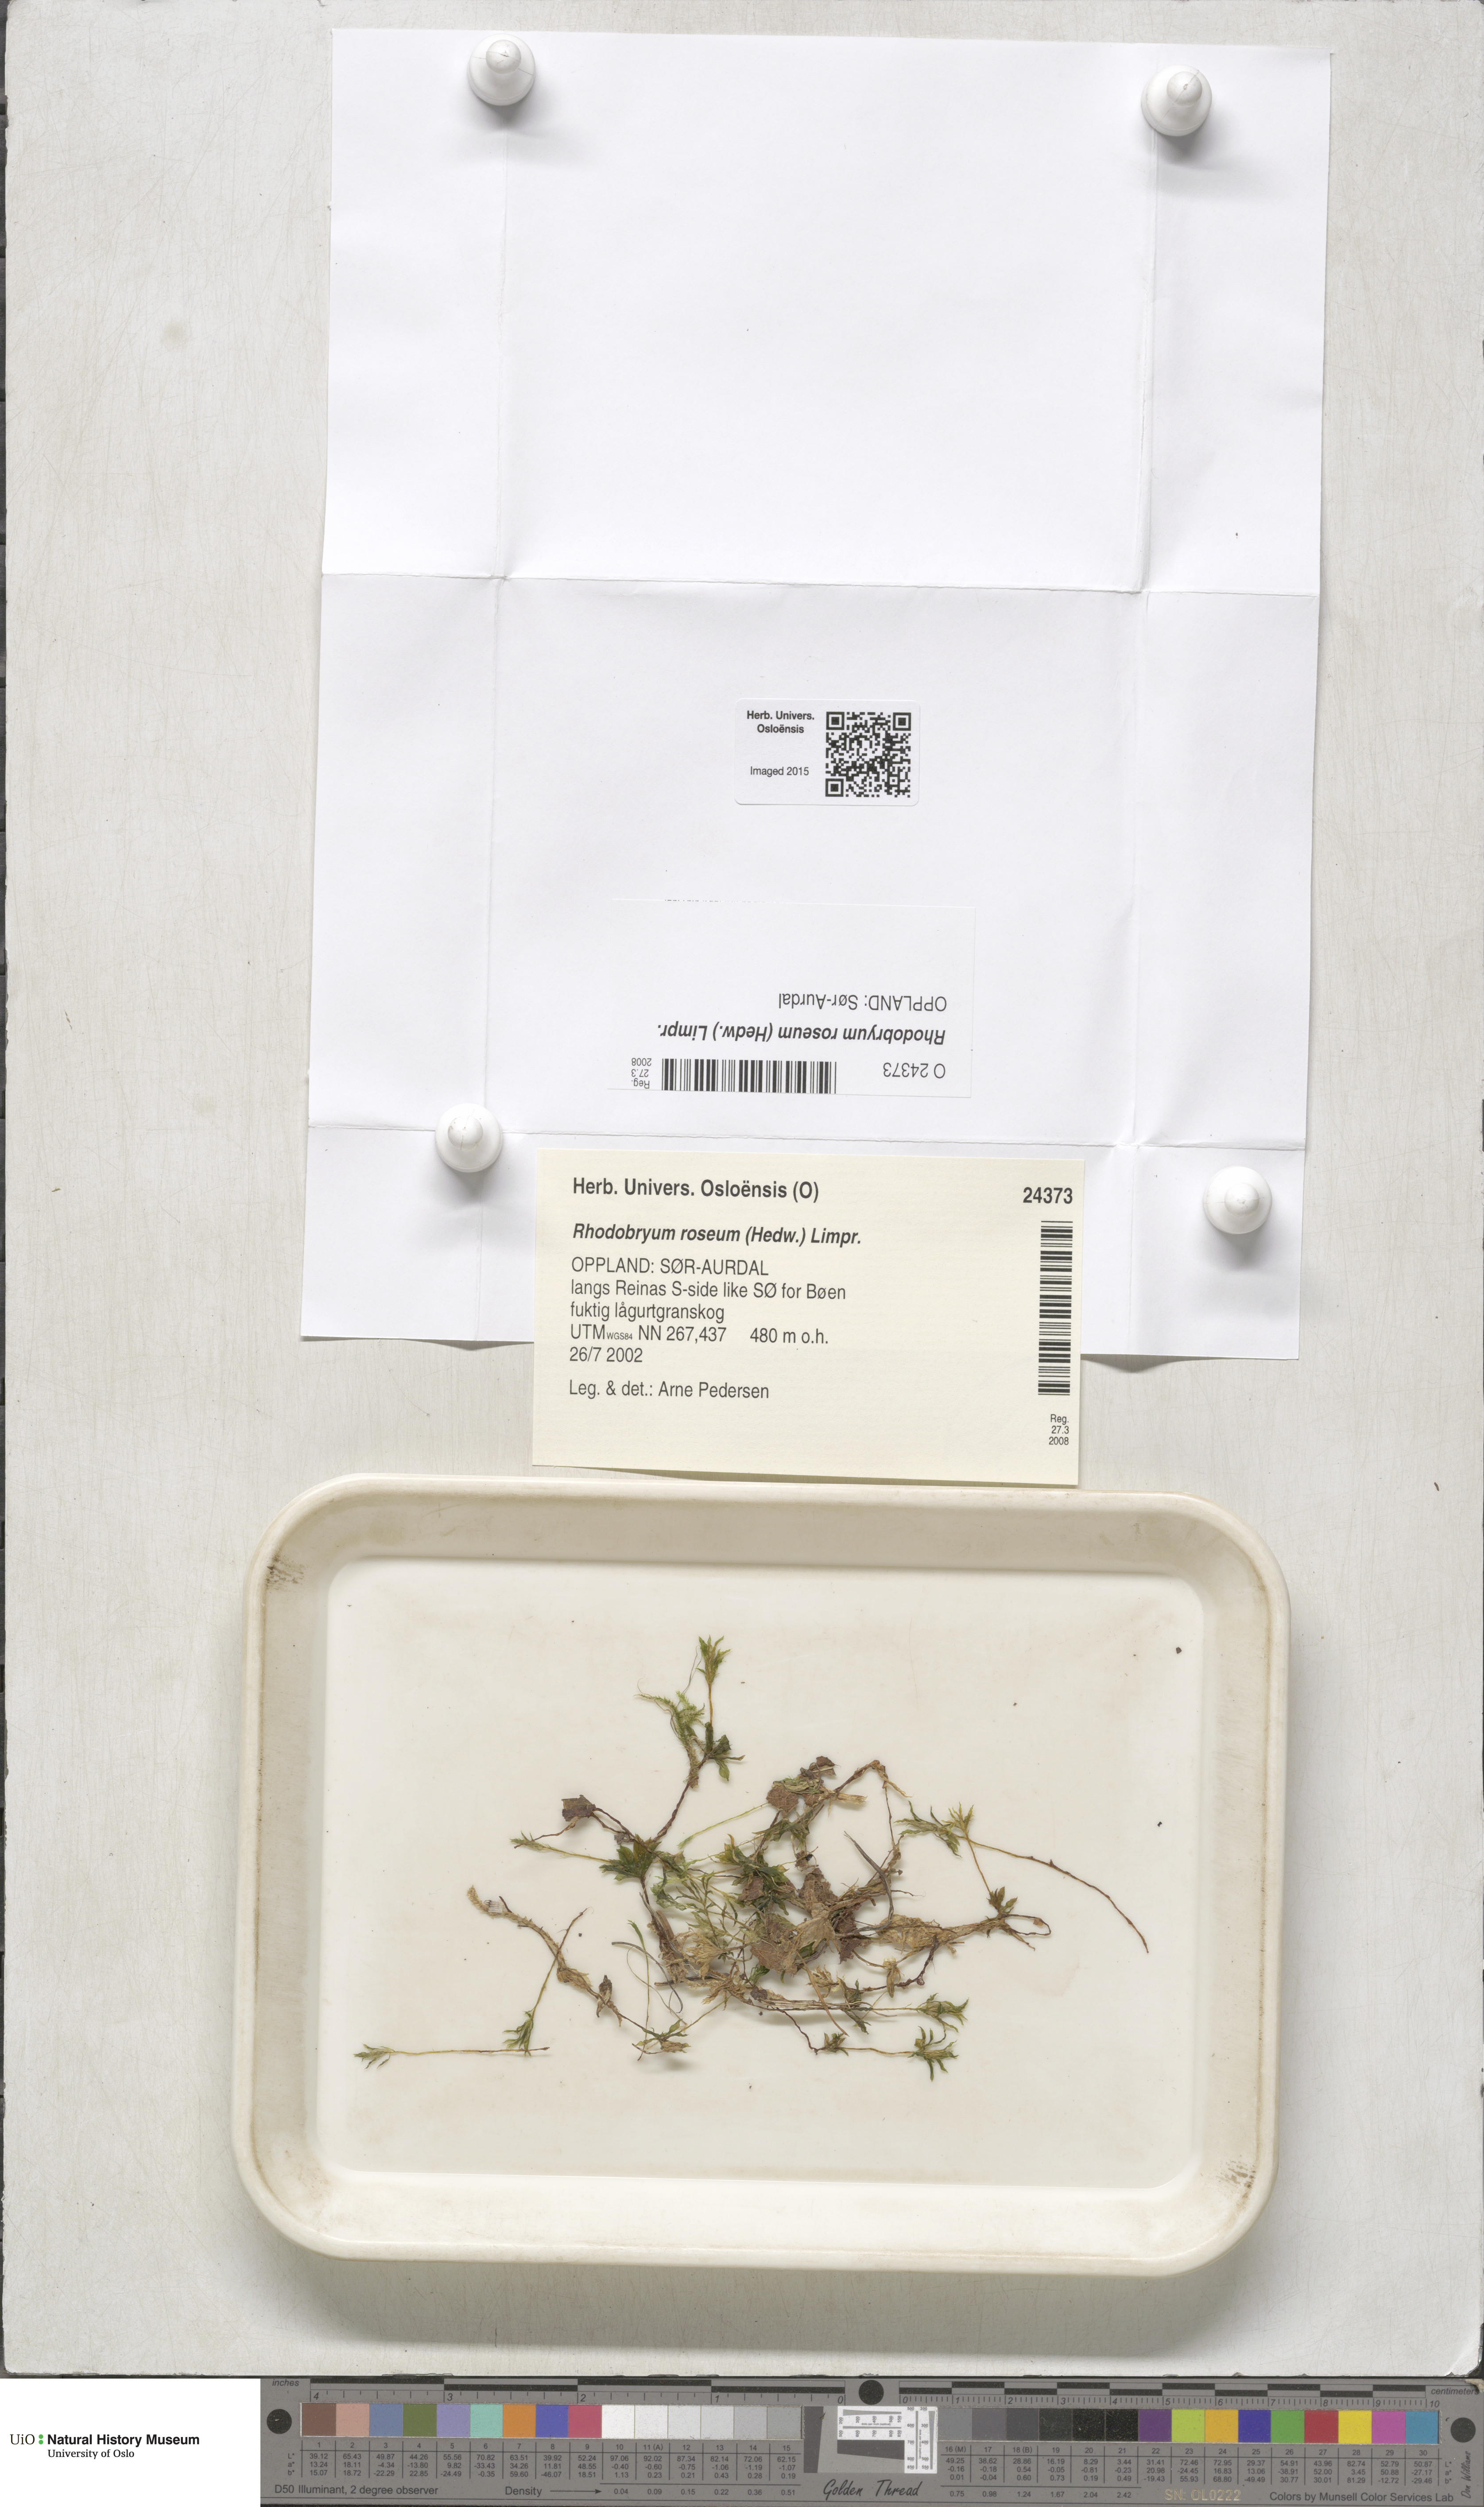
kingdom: Plantae
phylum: Bryophyta
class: Bryopsida
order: Bryales
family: Bryaceae
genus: Rhodobryum
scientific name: Rhodobryum roseum
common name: Rose-moss
